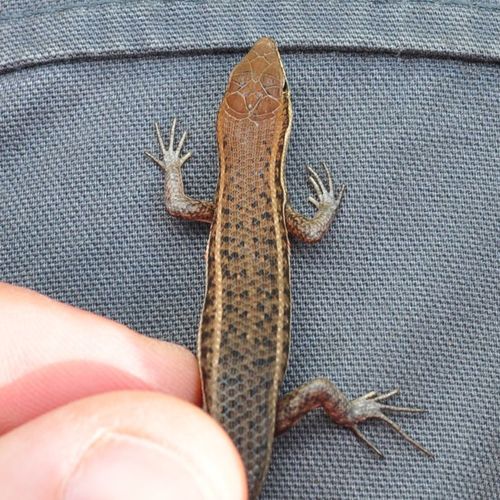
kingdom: Animalia
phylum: Chordata
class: Squamata
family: Scincidae
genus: Trachylepis
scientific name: Trachylepis varia
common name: Eastern variable skink
